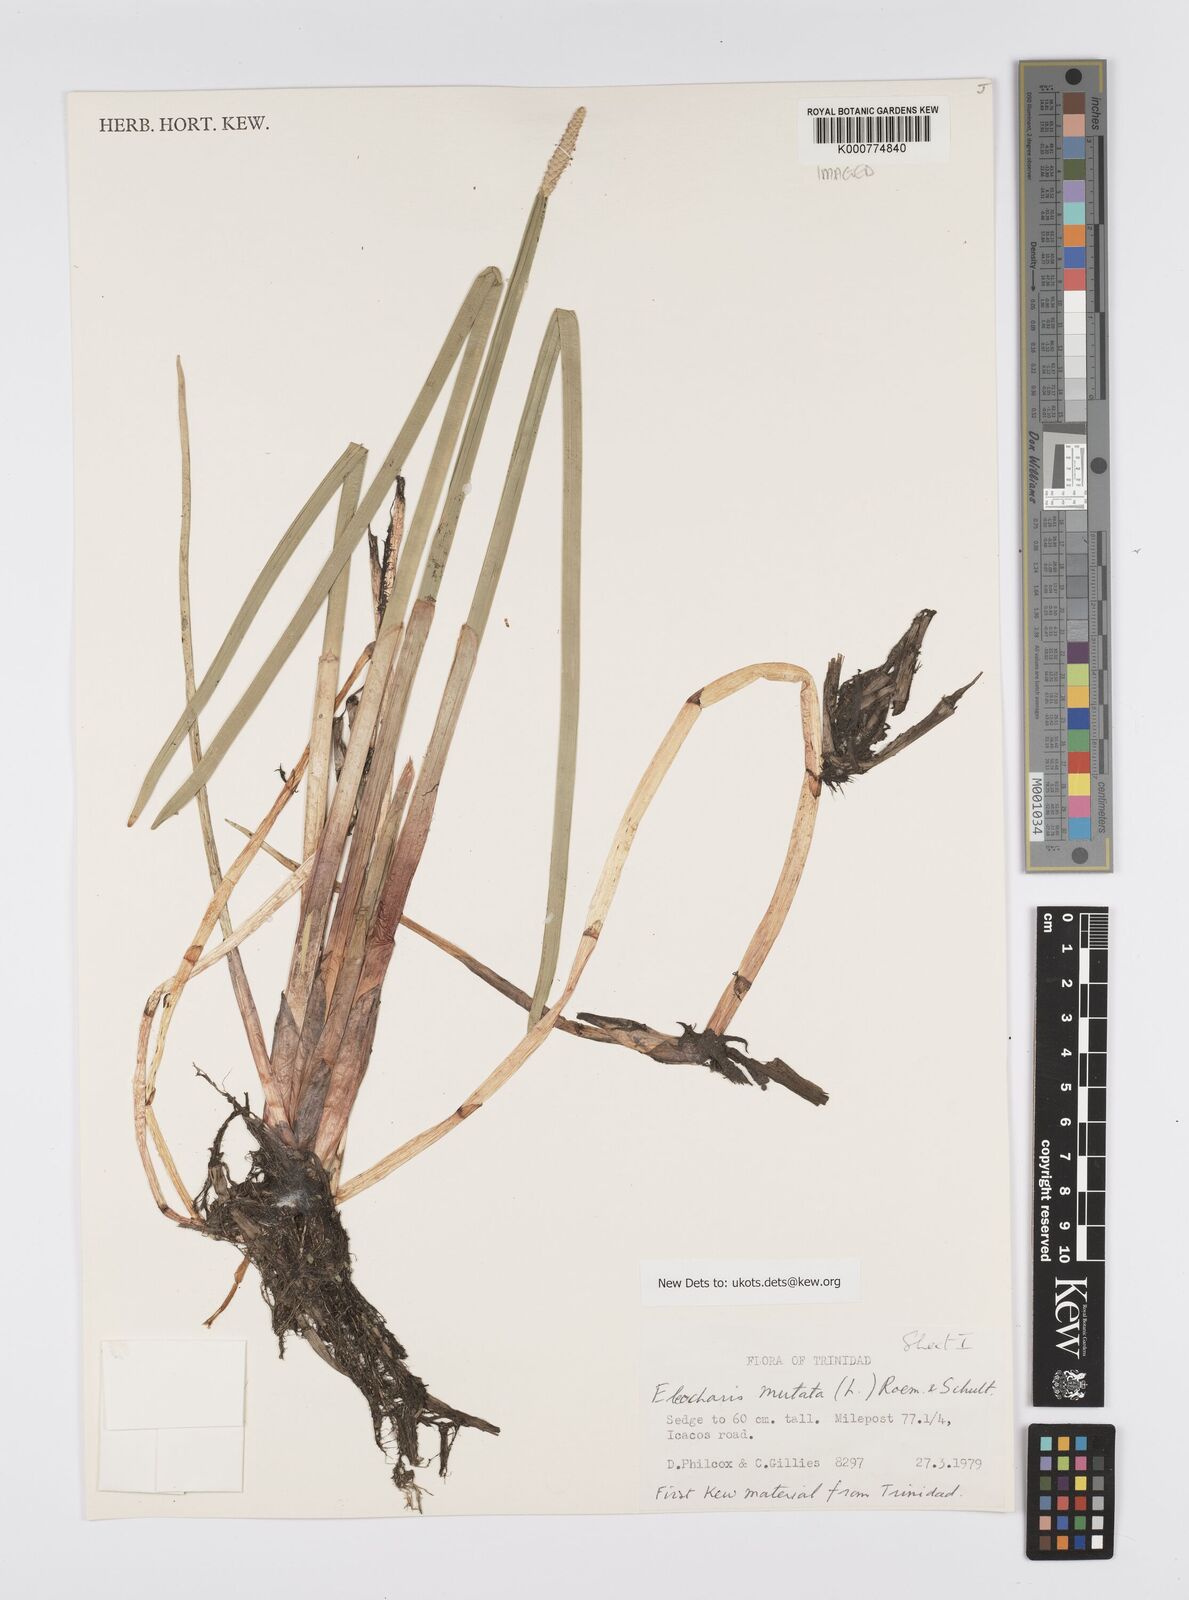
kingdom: Plantae
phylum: Tracheophyta
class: Liliopsida
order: Poales
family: Cyperaceae
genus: Eleocharis
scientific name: Eleocharis mutata
